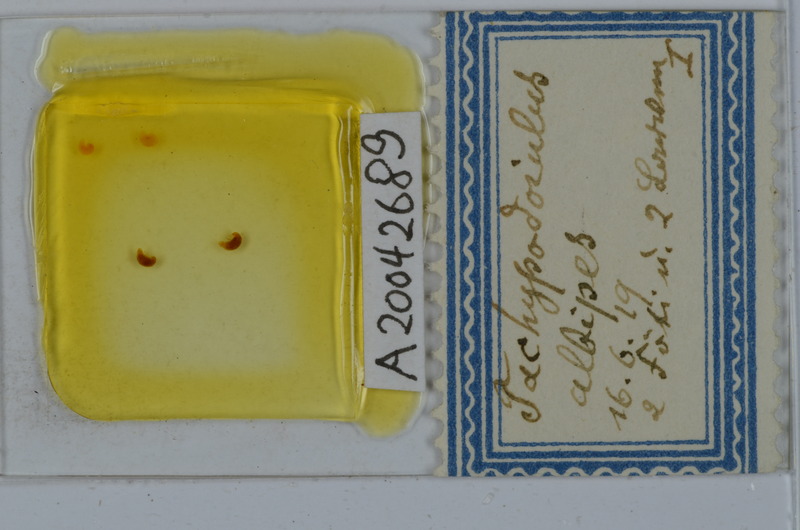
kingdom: Animalia
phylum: Arthropoda
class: Diplopoda
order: Julida
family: Julidae
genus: Tachypodoiulus
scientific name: Tachypodoiulus niger
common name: White-legged snake millipede
